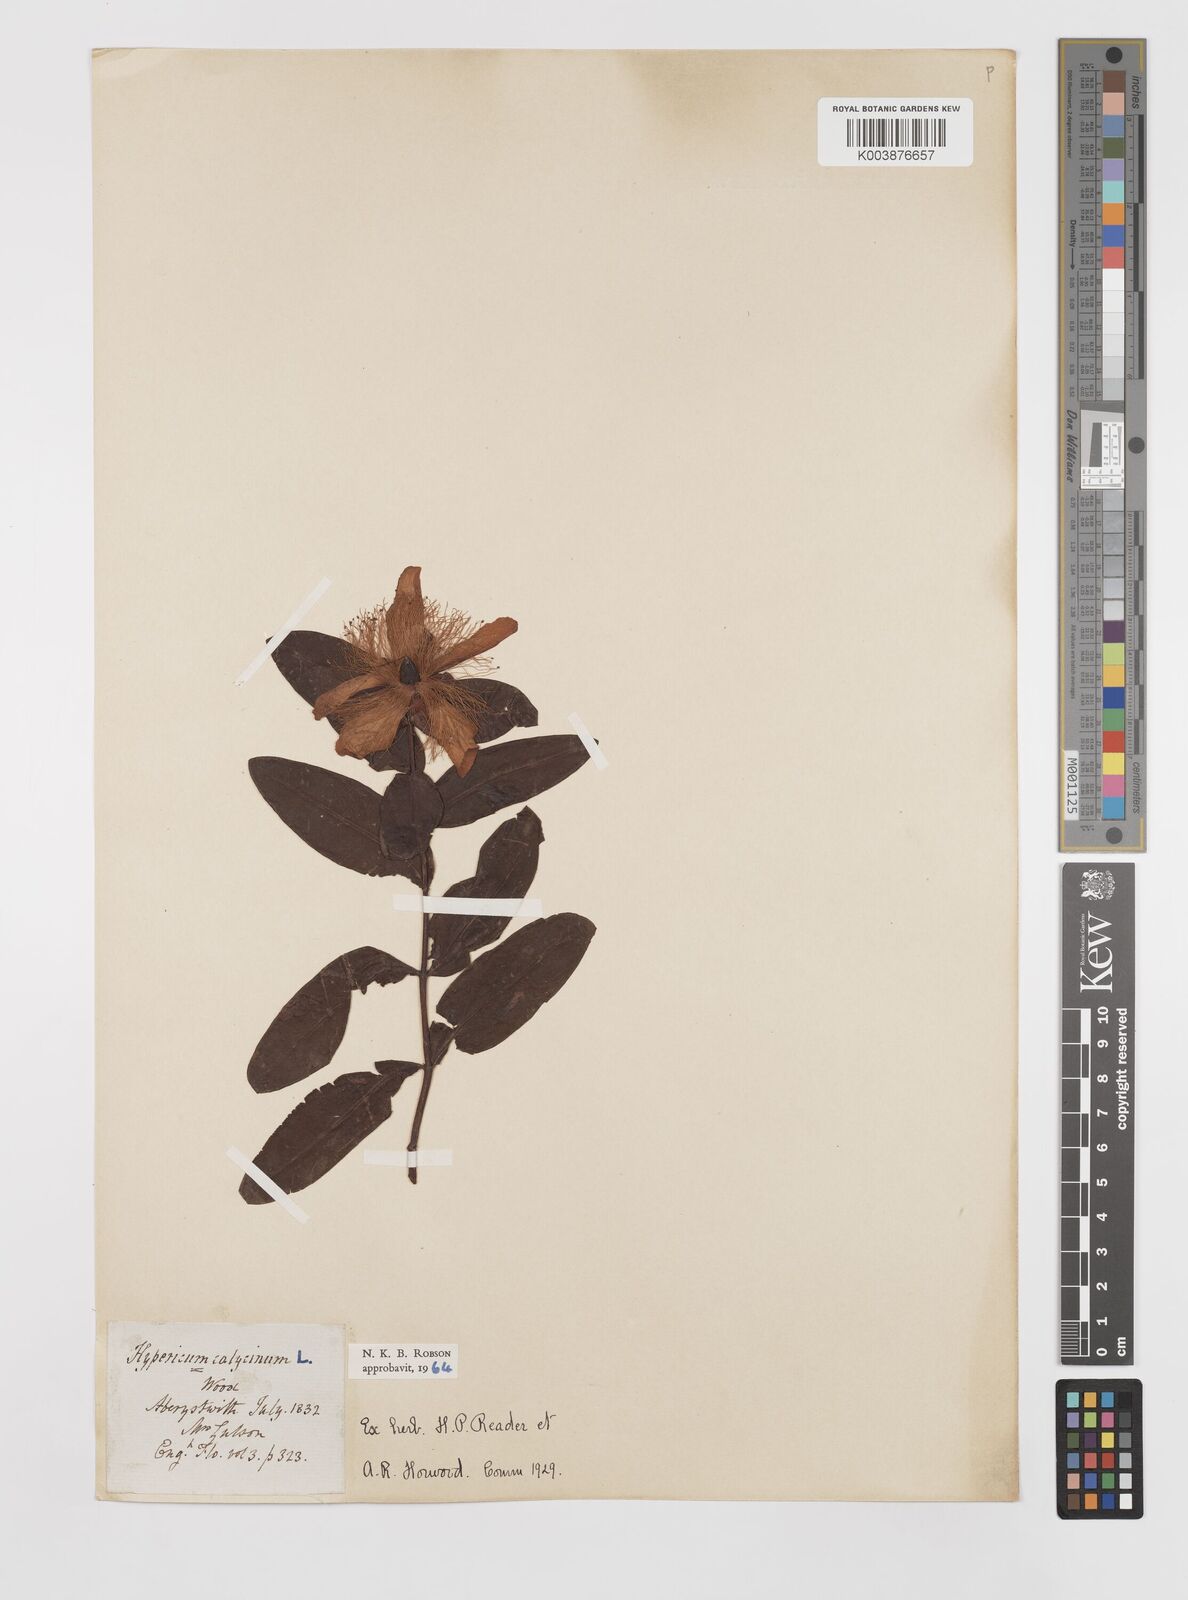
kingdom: Plantae
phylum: Tracheophyta
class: Magnoliopsida
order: Malpighiales
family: Hypericaceae
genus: Hypericum
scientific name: Hypericum calycinum
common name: Rose-of-sharon
